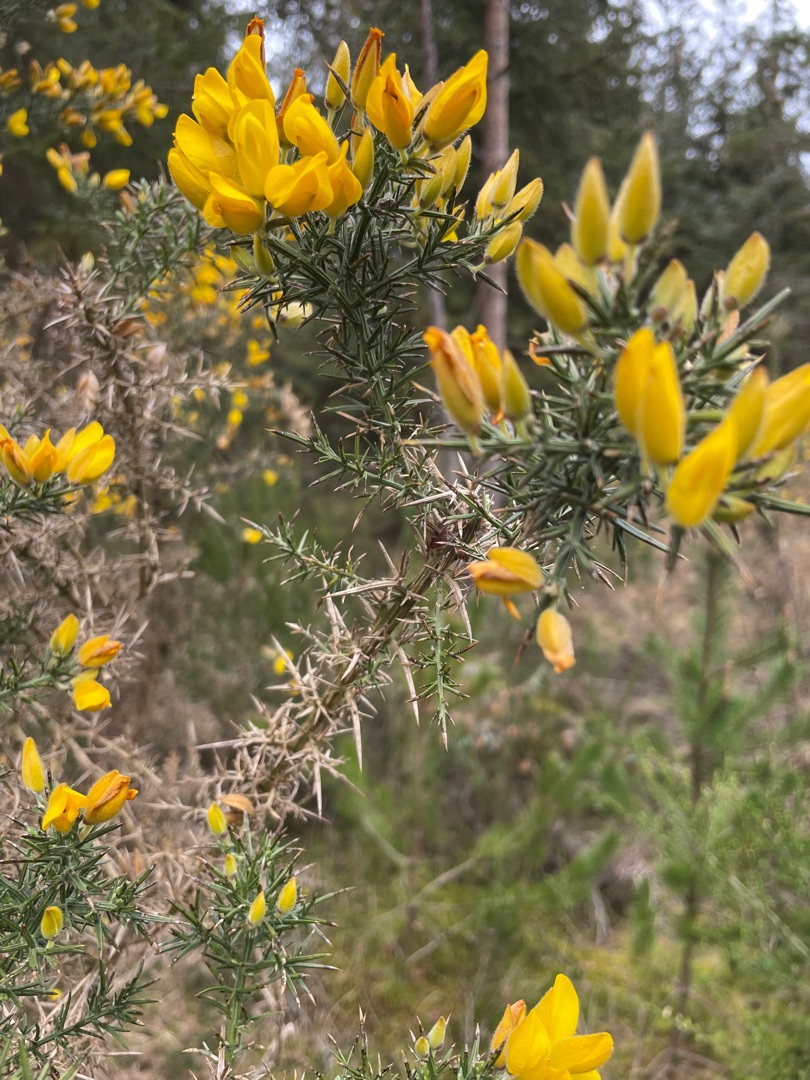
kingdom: Plantae
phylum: Tracheophyta
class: Magnoliopsida
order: Fabales
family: Fabaceae
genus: Ulex
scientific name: Ulex europaeus
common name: Tornblad
